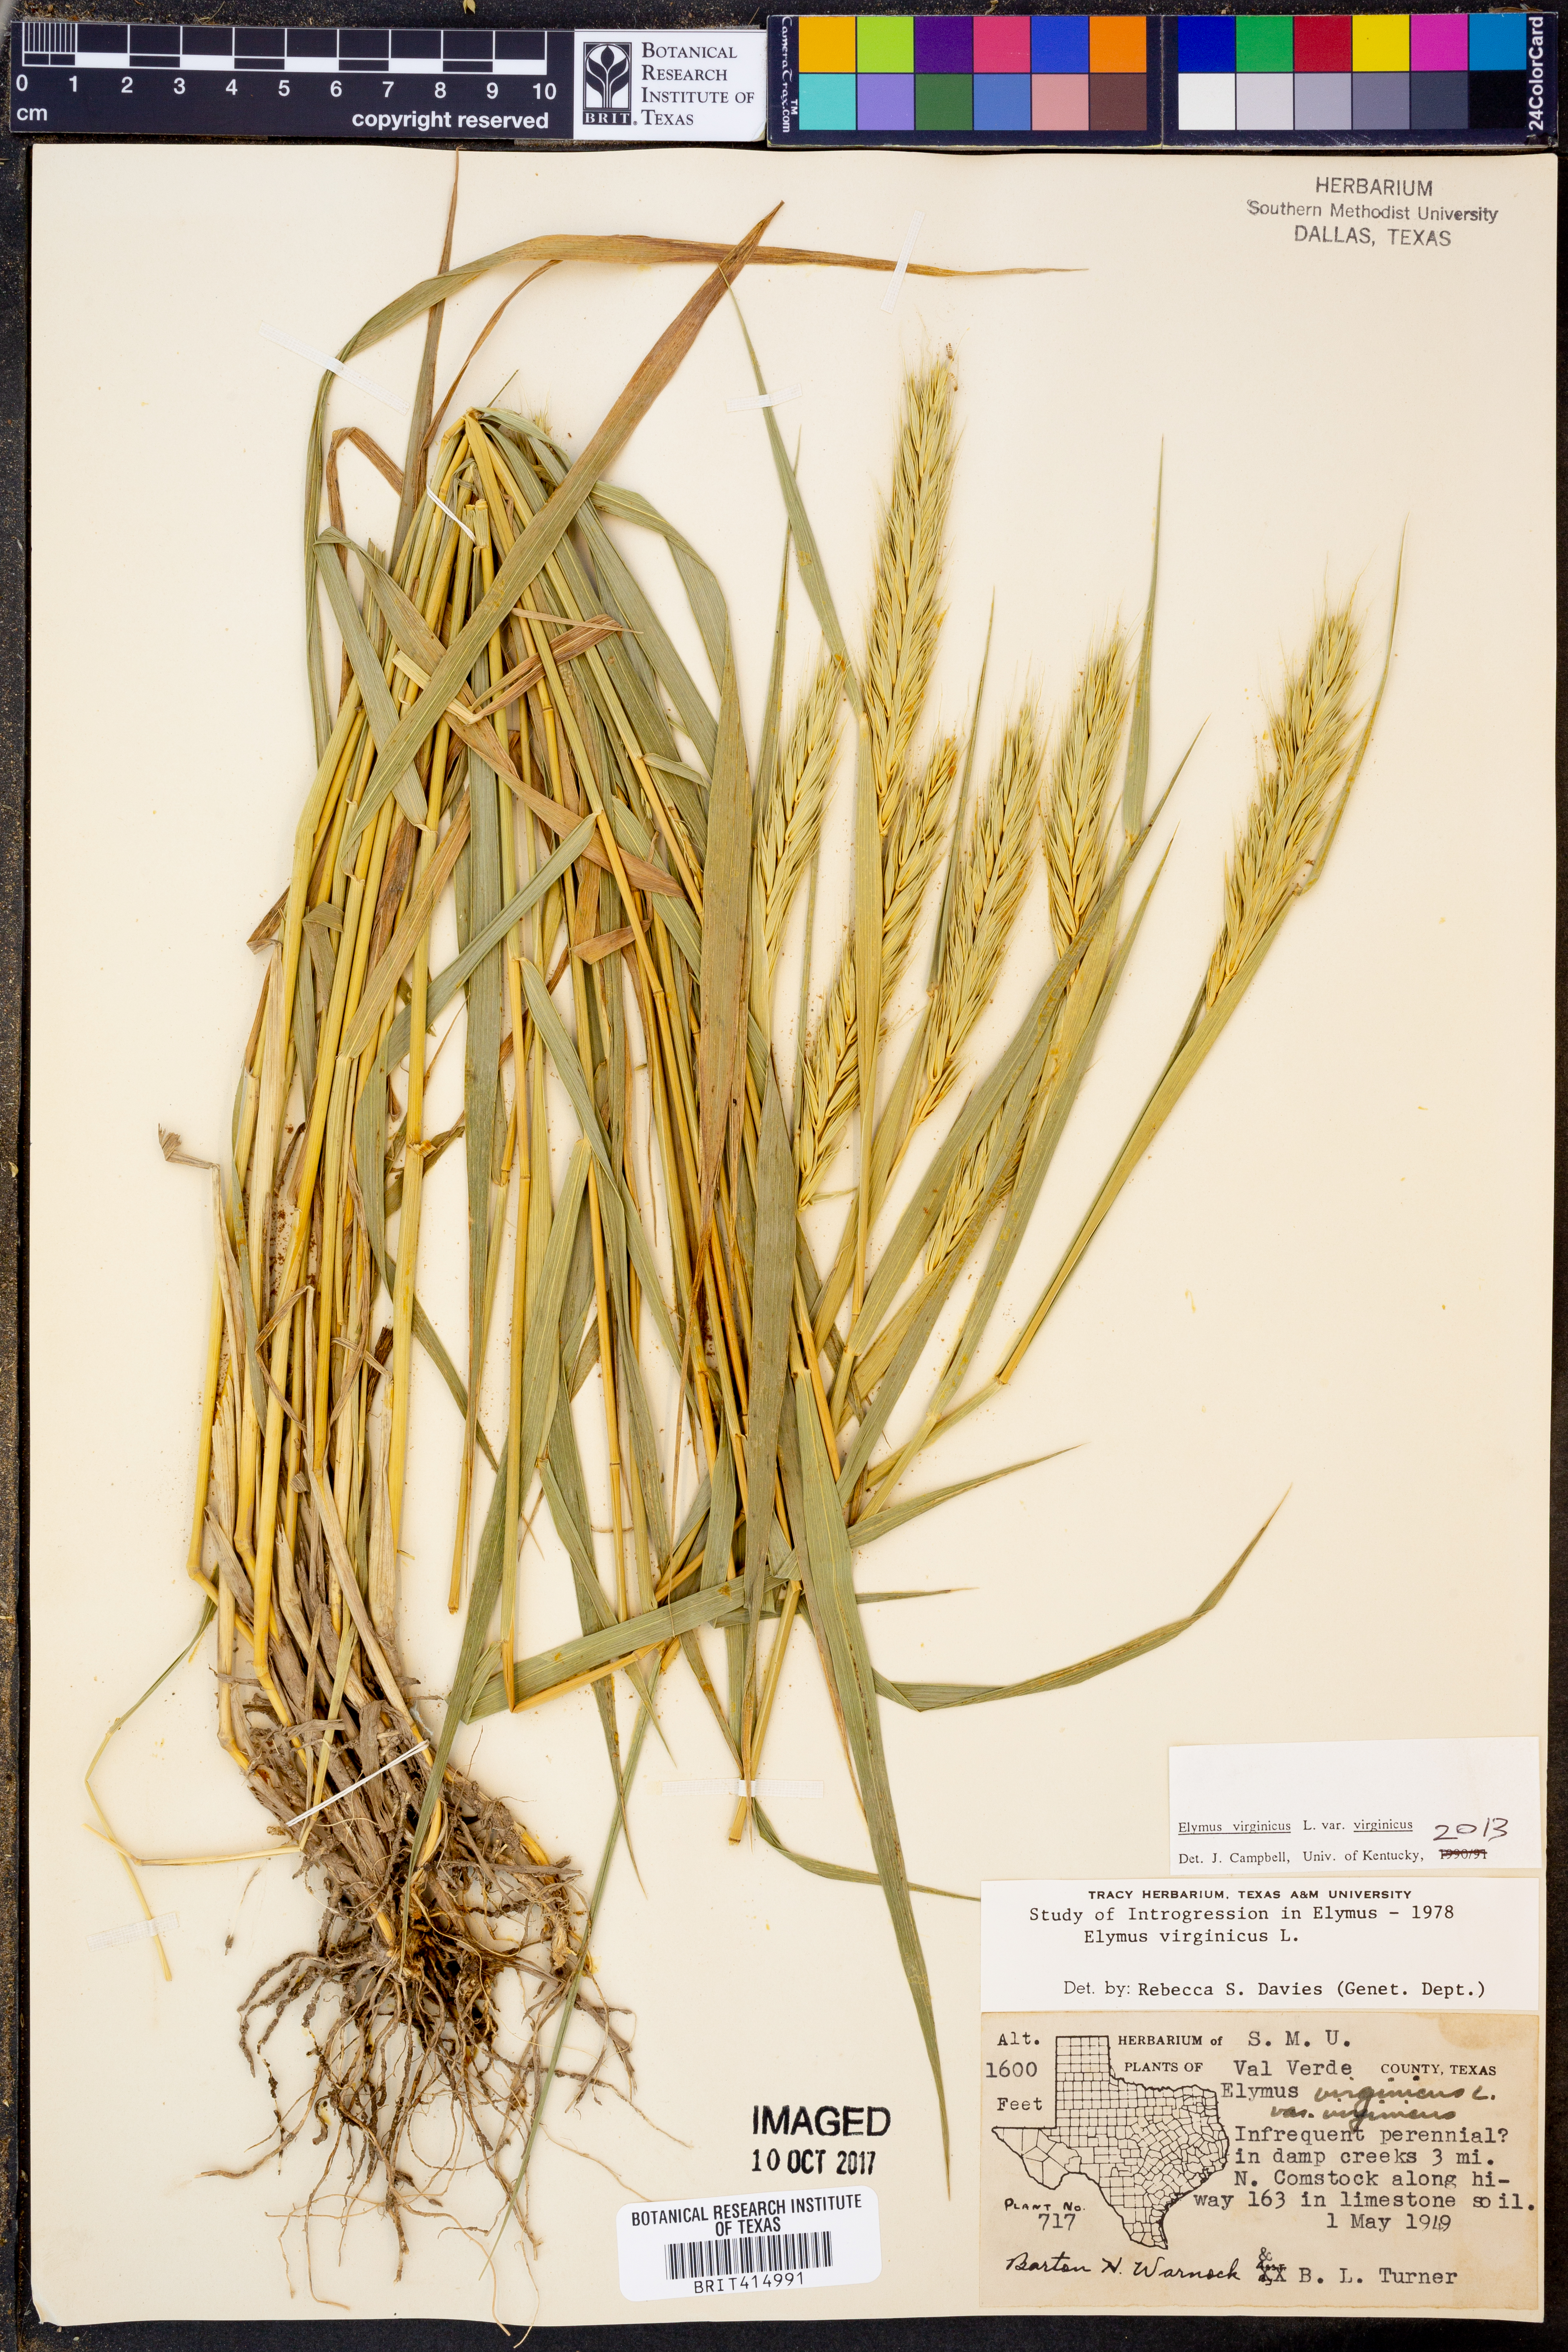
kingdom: Plantae
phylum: Tracheophyta
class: Liliopsida
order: Poales
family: Poaceae
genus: Elymus
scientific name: Elymus virginicus
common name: Common eastern wildrye
